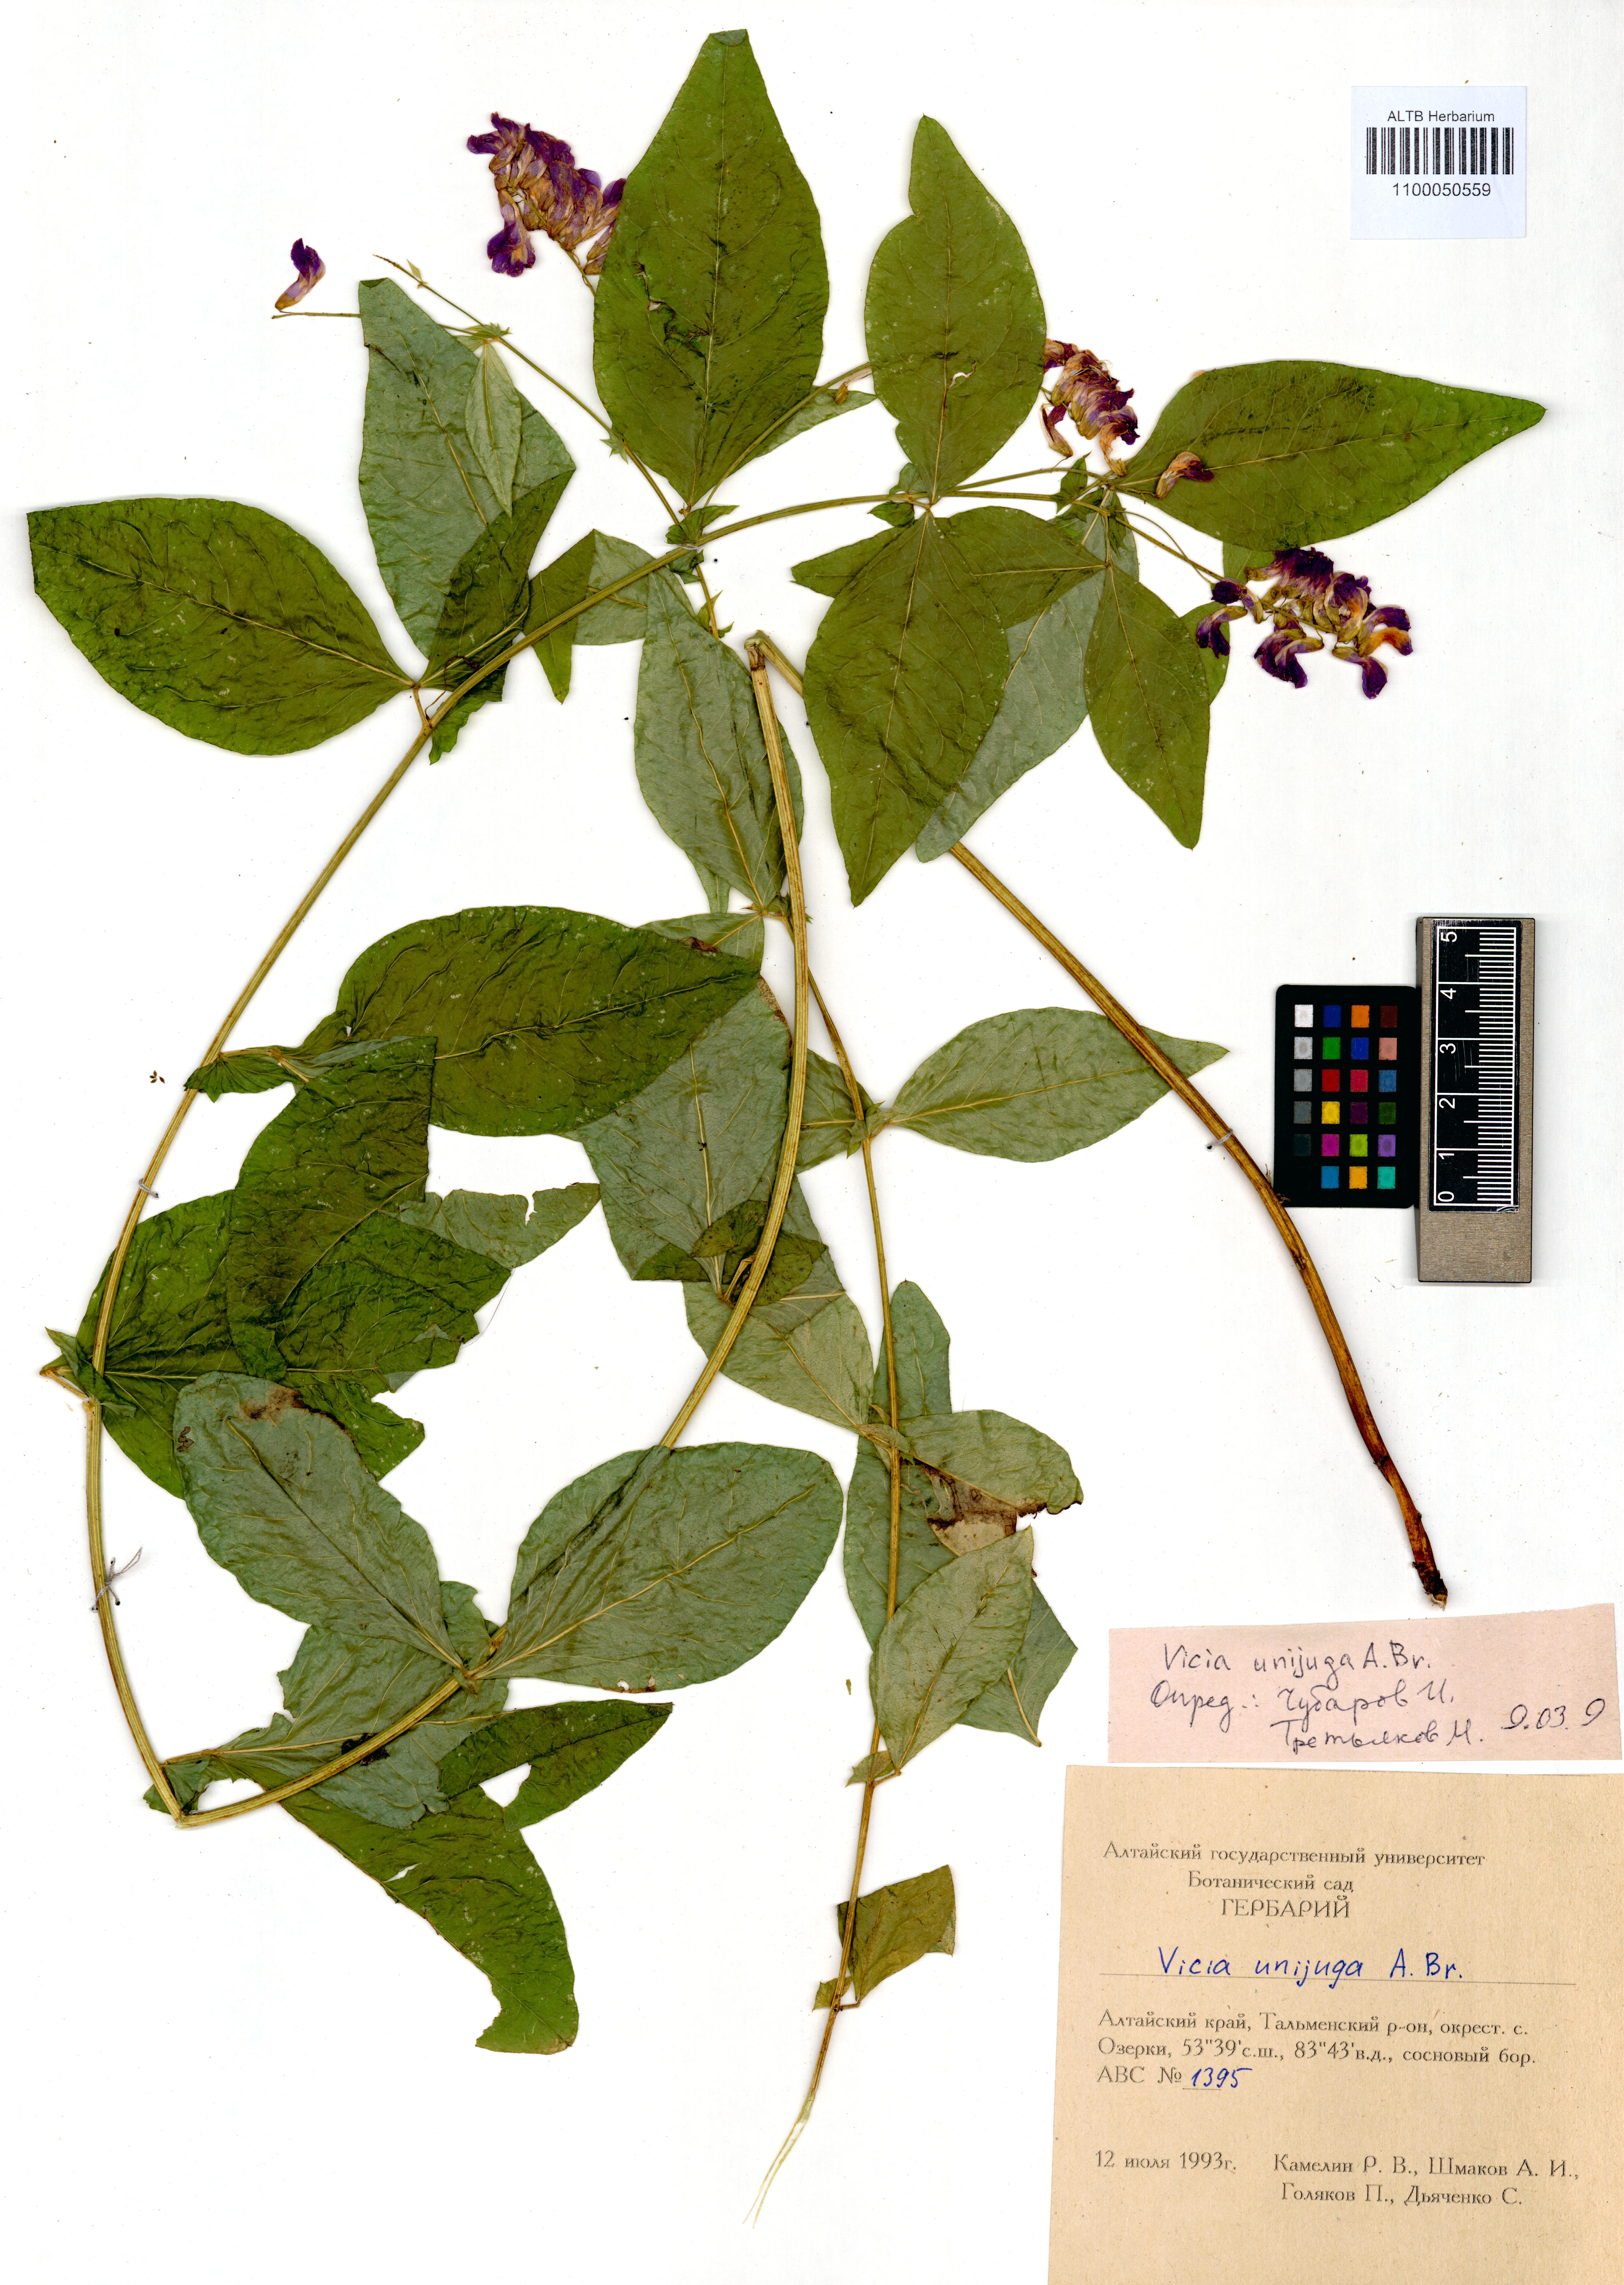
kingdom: Plantae
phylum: Tracheophyta
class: Magnoliopsida
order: Fabales
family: Fabaceae
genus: Vicia
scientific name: Vicia unijuga
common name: Two-leaf vetch
